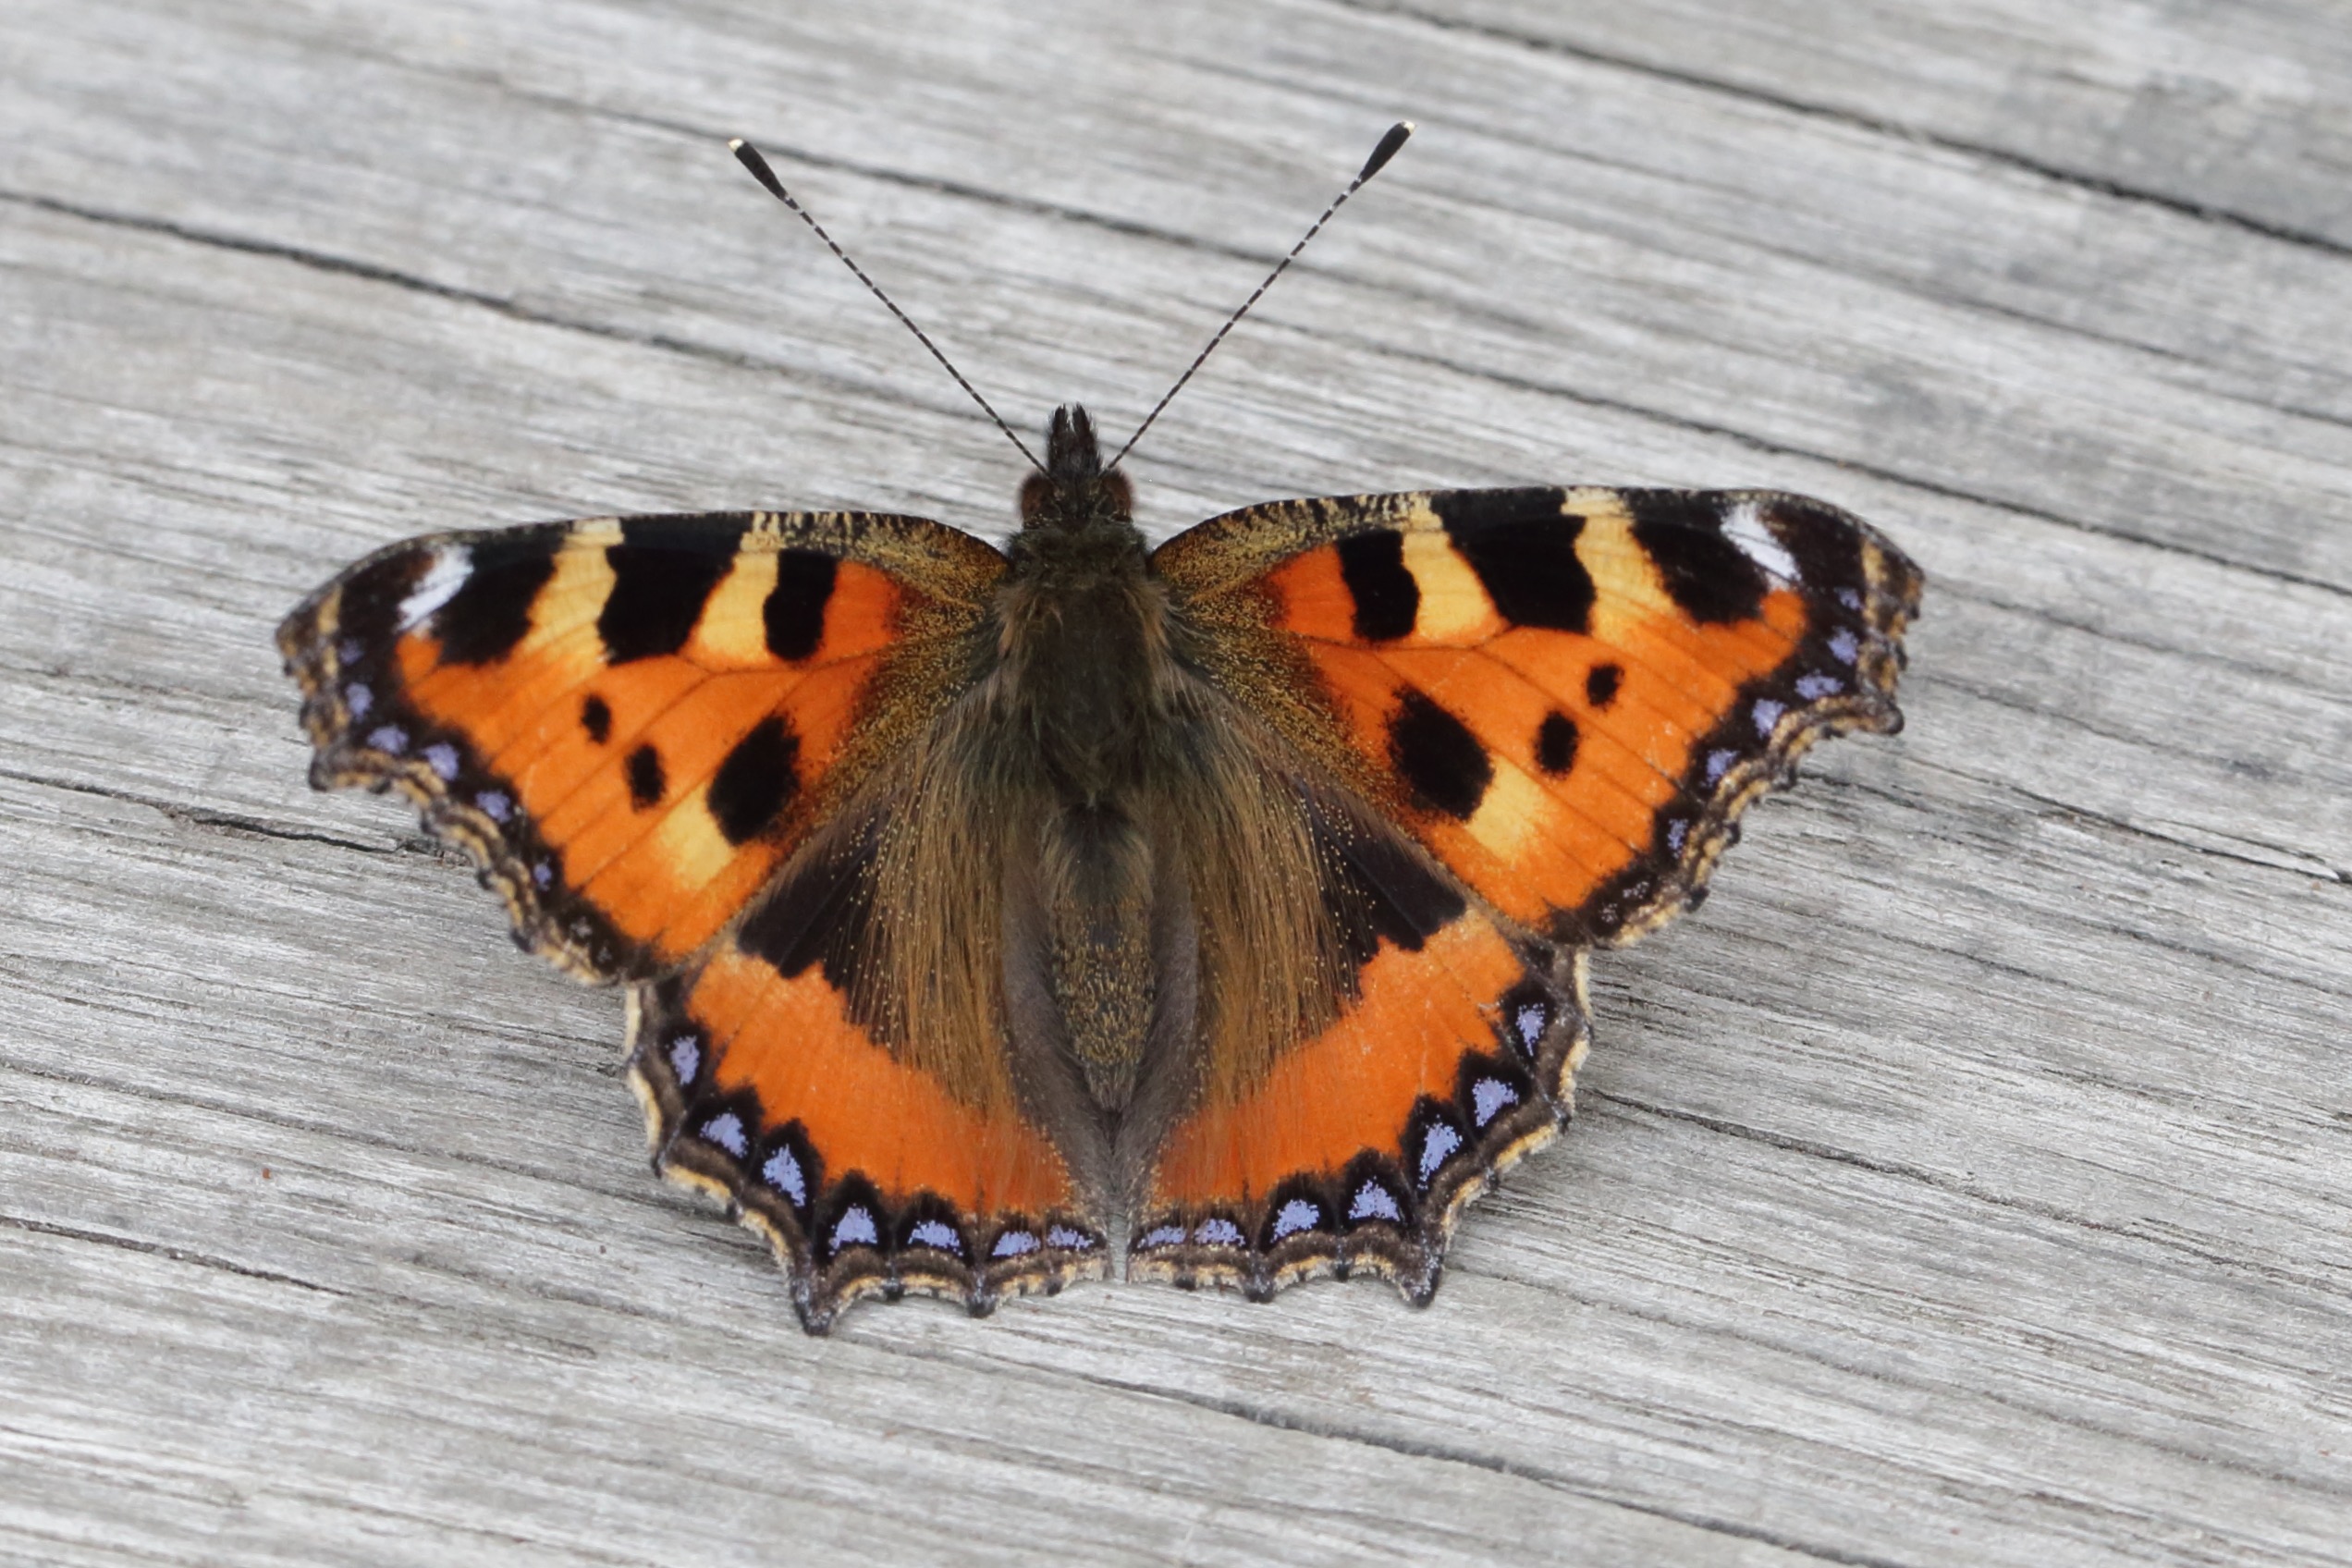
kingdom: Animalia
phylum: Arthropoda
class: Insecta
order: Lepidoptera
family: Nymphalidae
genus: Aglais
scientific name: Aglais urticae
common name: Nældens takvinge
